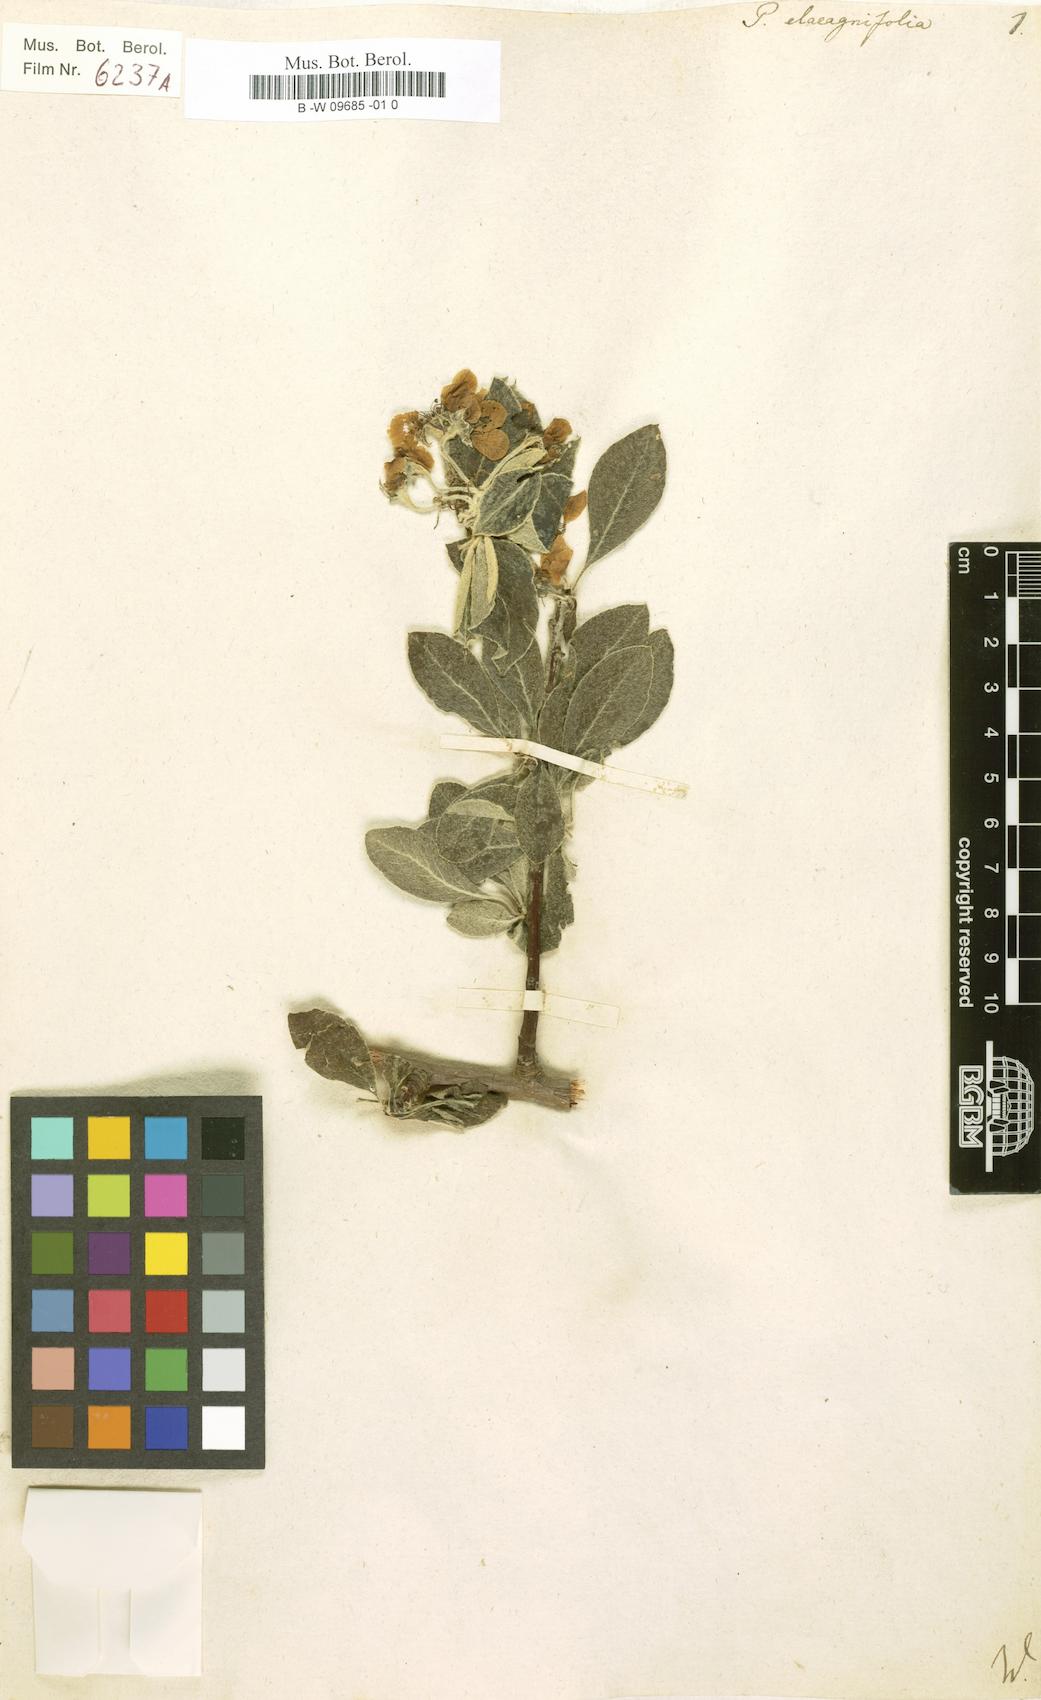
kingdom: Plantae
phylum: Tracheophyta
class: Magnoliopsida
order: Rosales
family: Rosaceae
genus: Pyrus
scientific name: Pyrus elaeagnifolia
